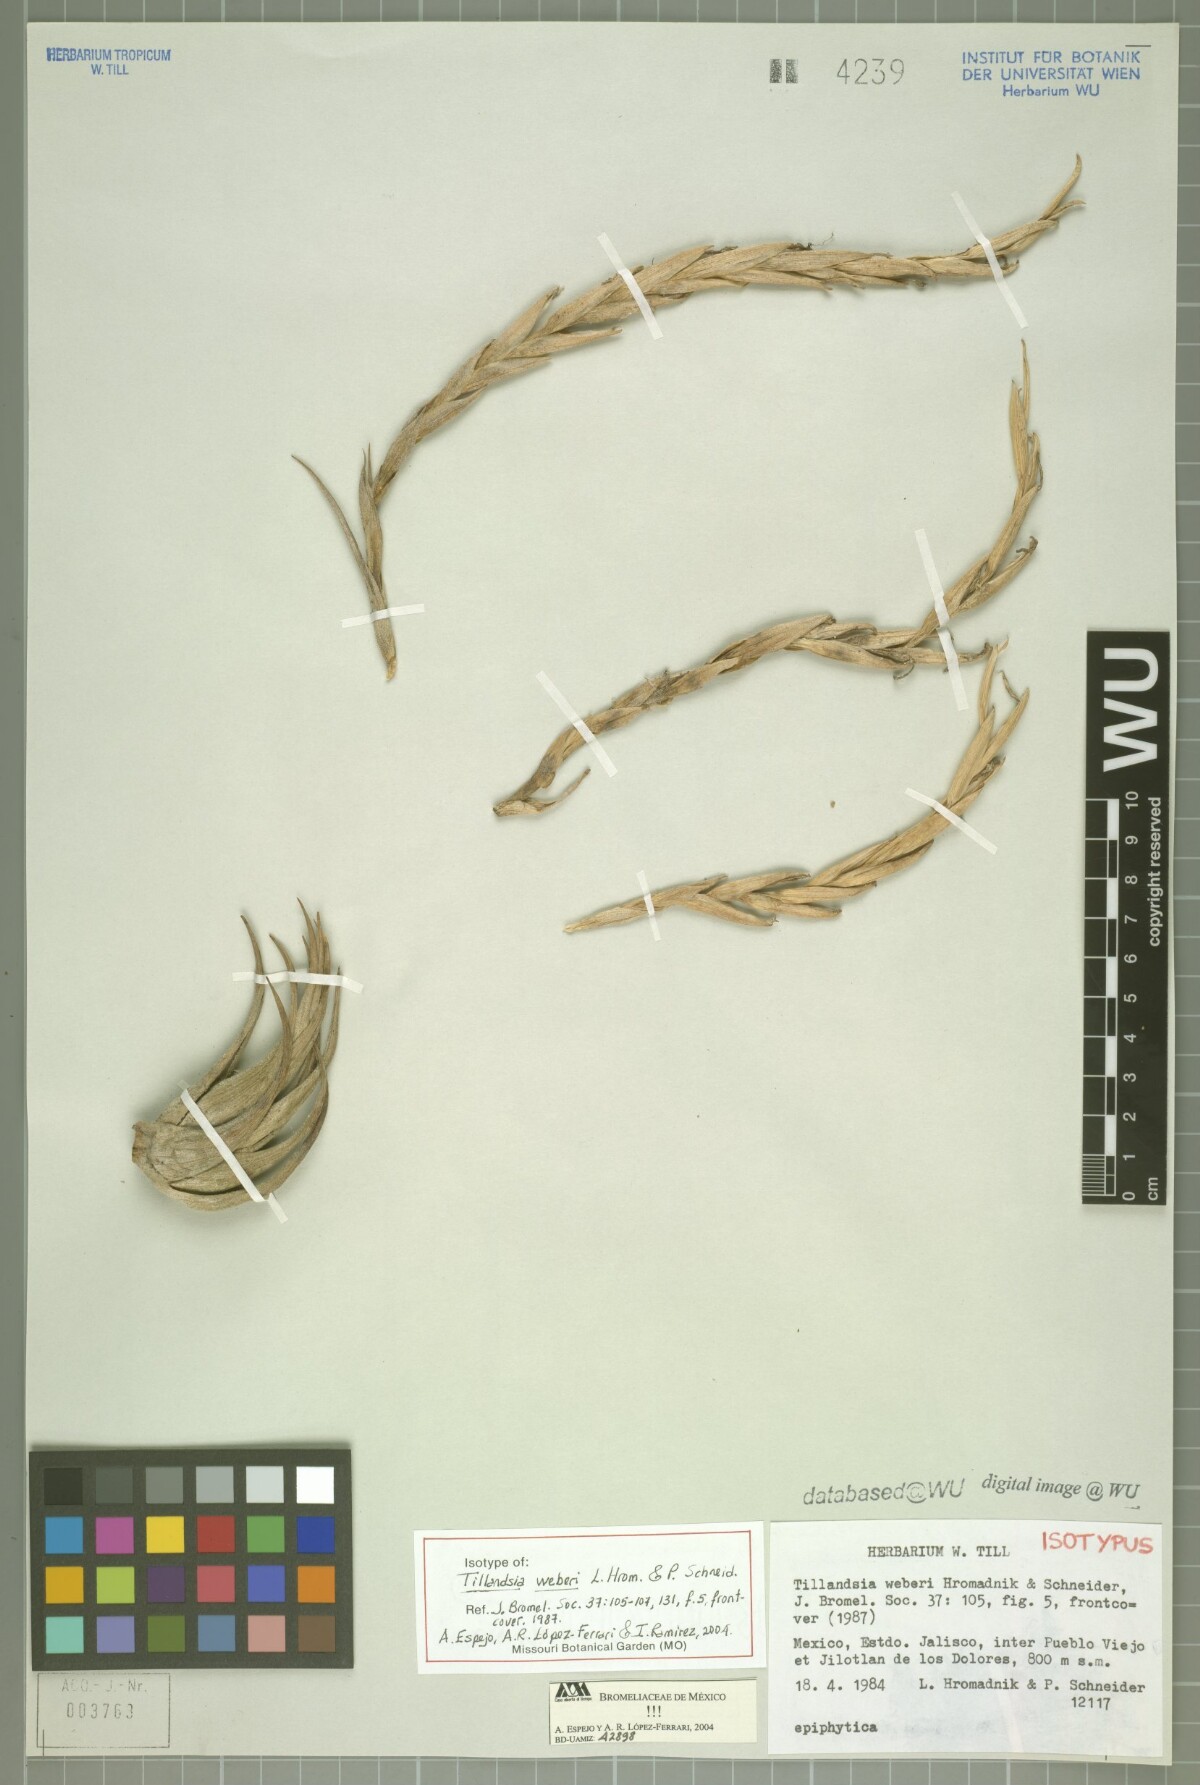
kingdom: Plantae
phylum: Tracheophyta
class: Liliopsida
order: Poales
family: Bromeliaceae
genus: Tillandsia
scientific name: Tillandsia weberi
